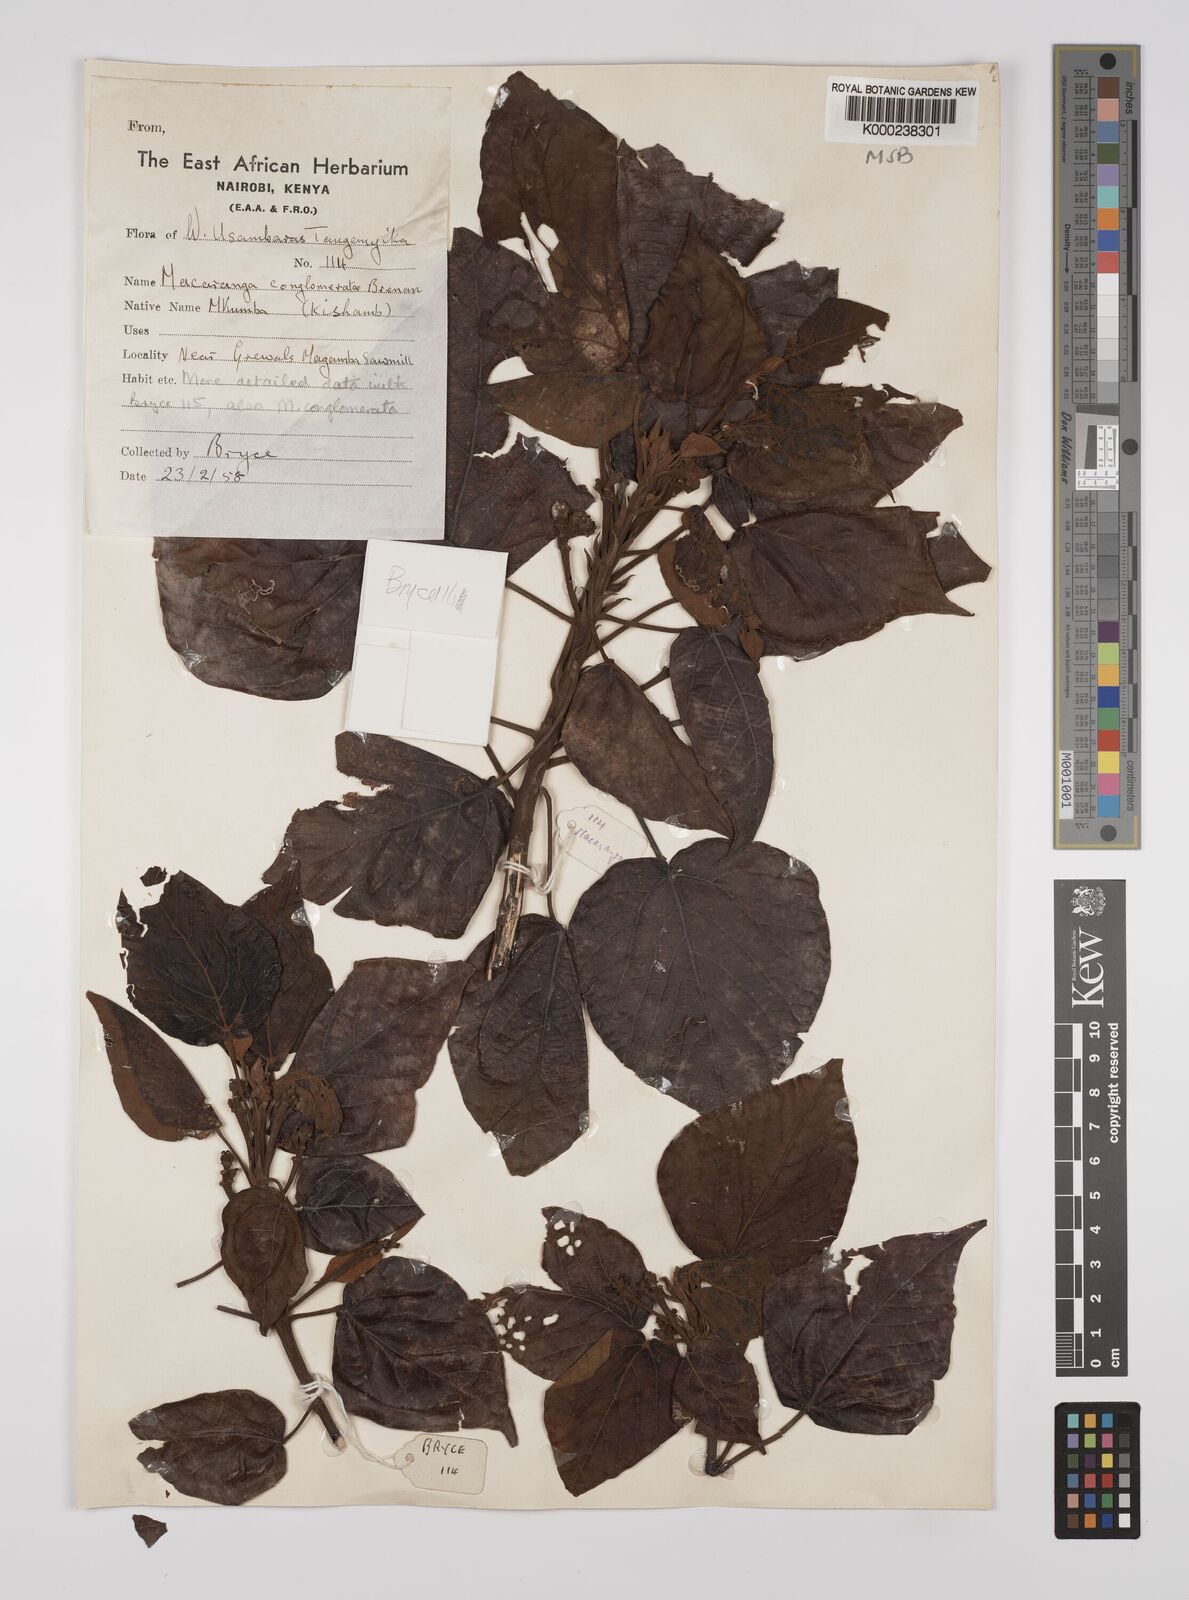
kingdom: Plantae
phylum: Tracheophyta
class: Magnoliopsida
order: Malpighiales
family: Euphorbiaceae
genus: Macaranga
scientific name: Macaranga conglomerata
